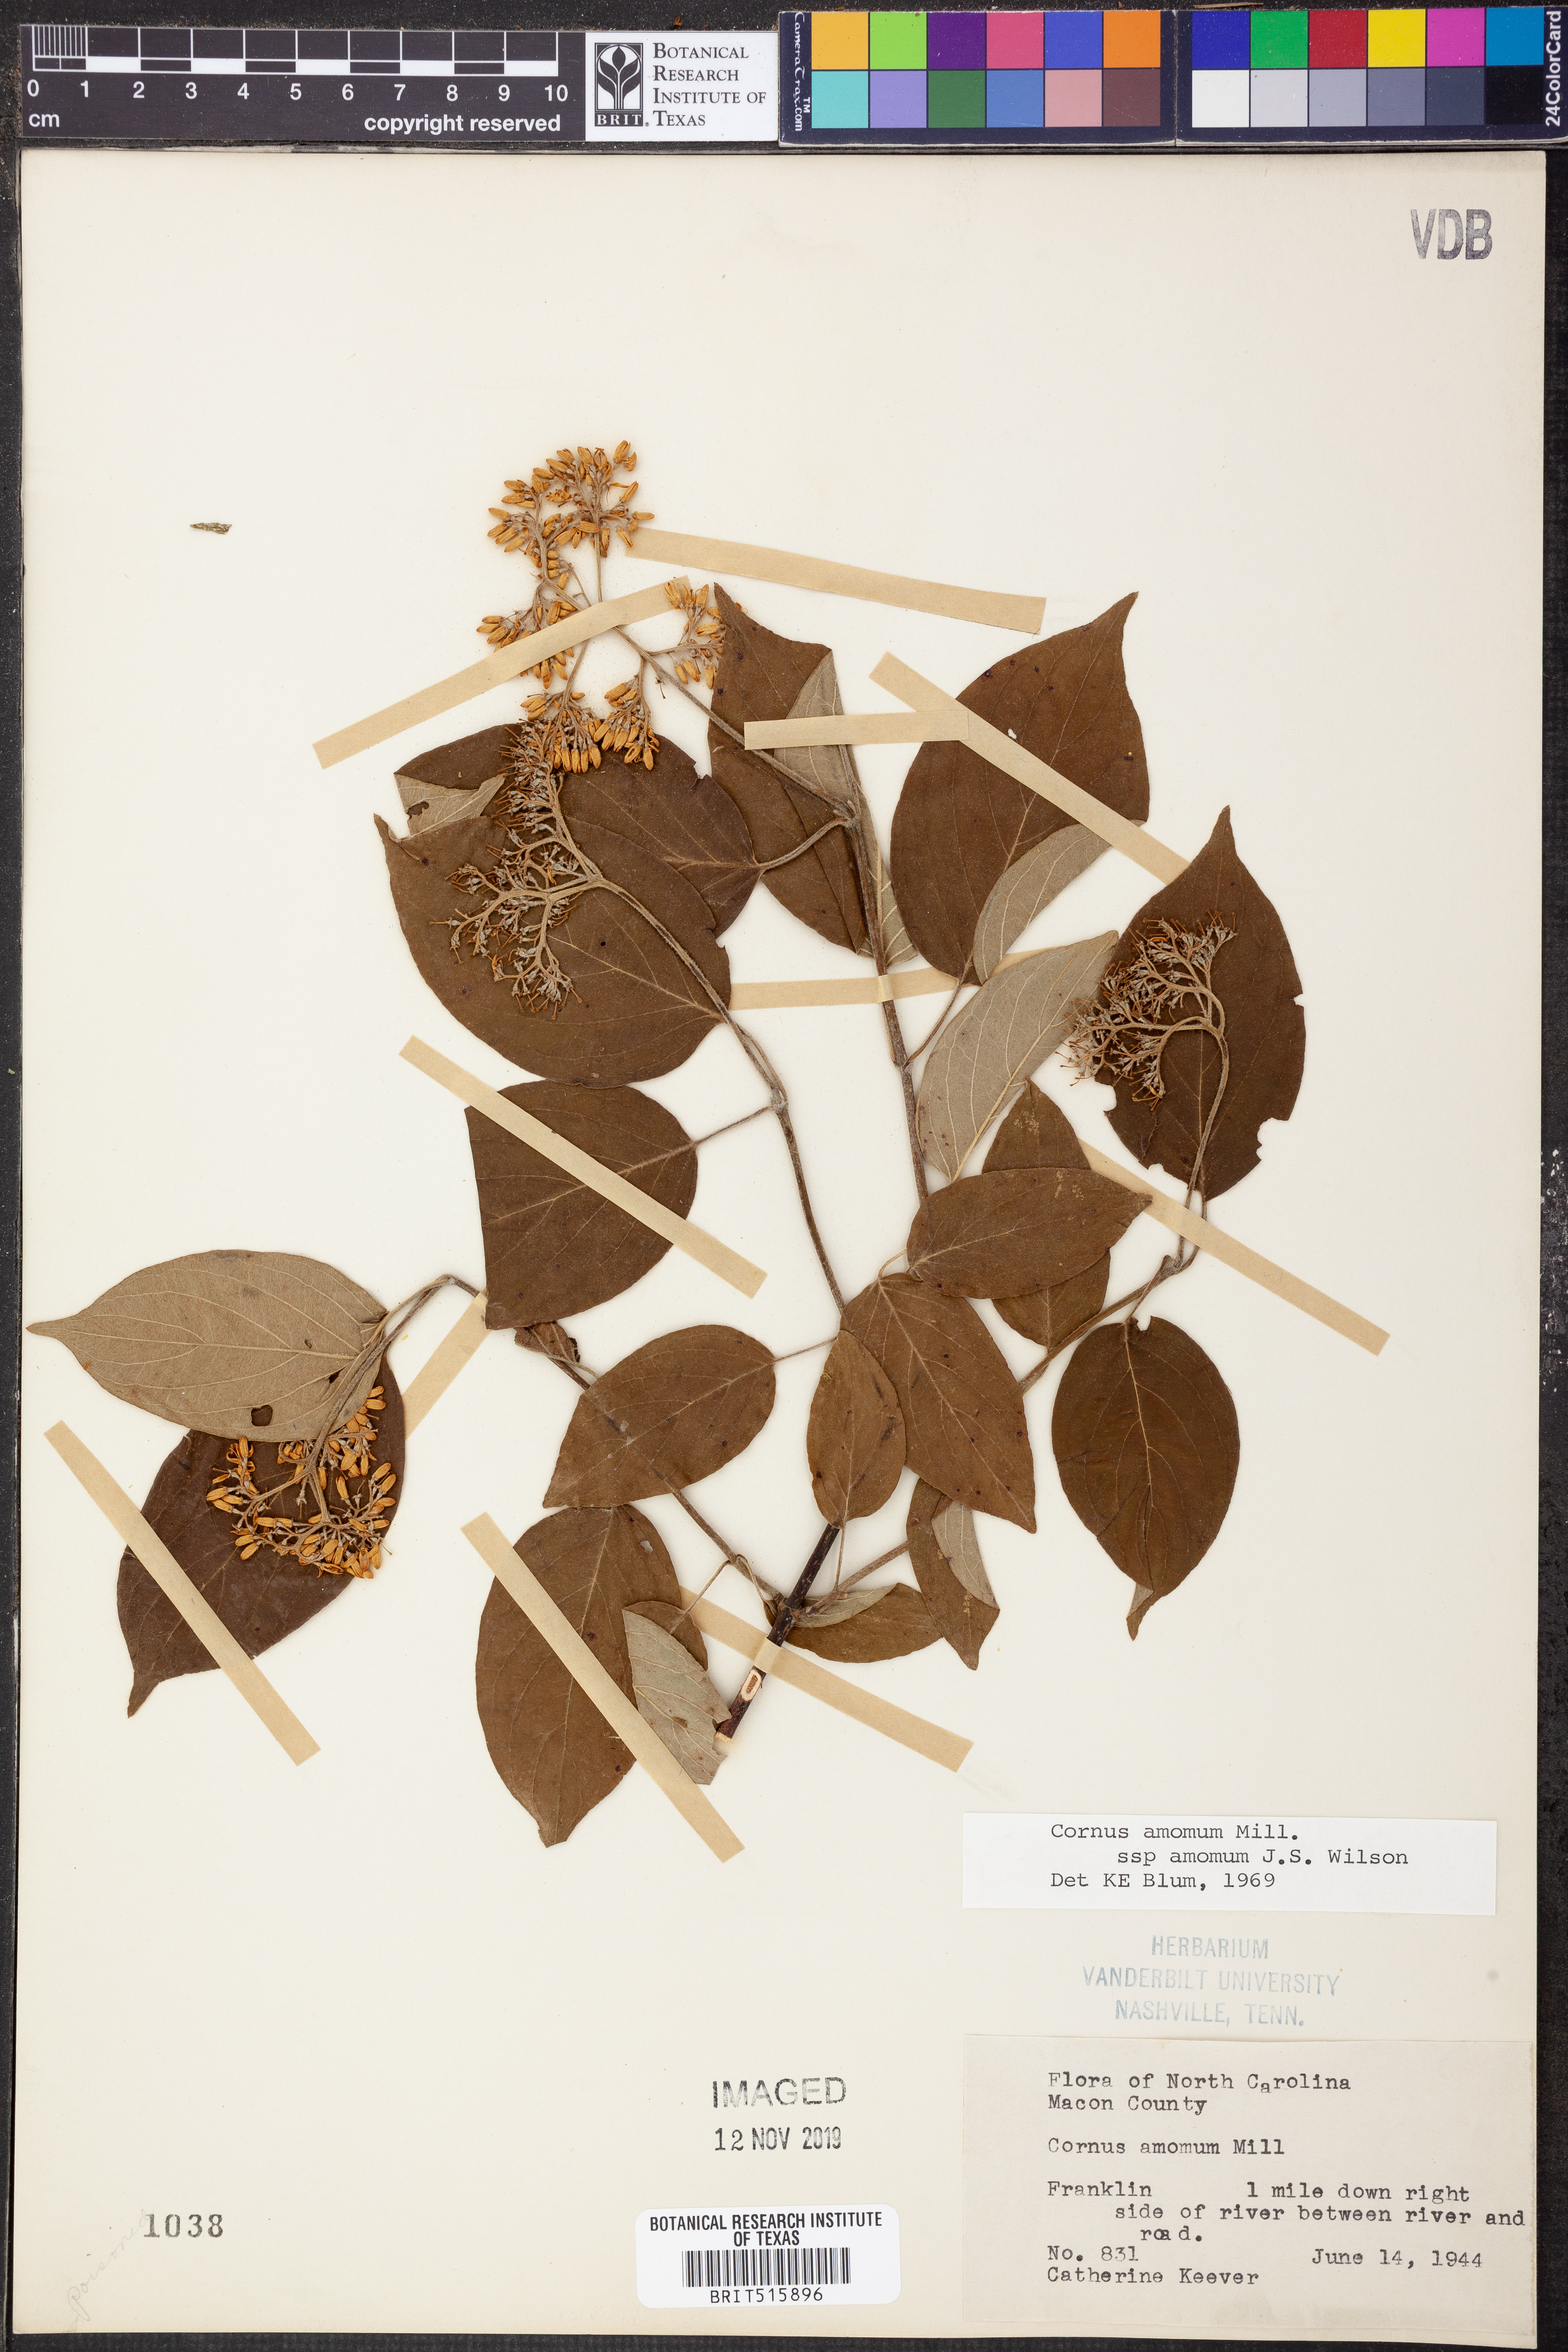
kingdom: Plantae
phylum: Tracheophyta
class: Magnoliopsida
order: Cornales
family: Cornaceae
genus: Cornus
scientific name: Cornus amomum
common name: Silky dogwood
